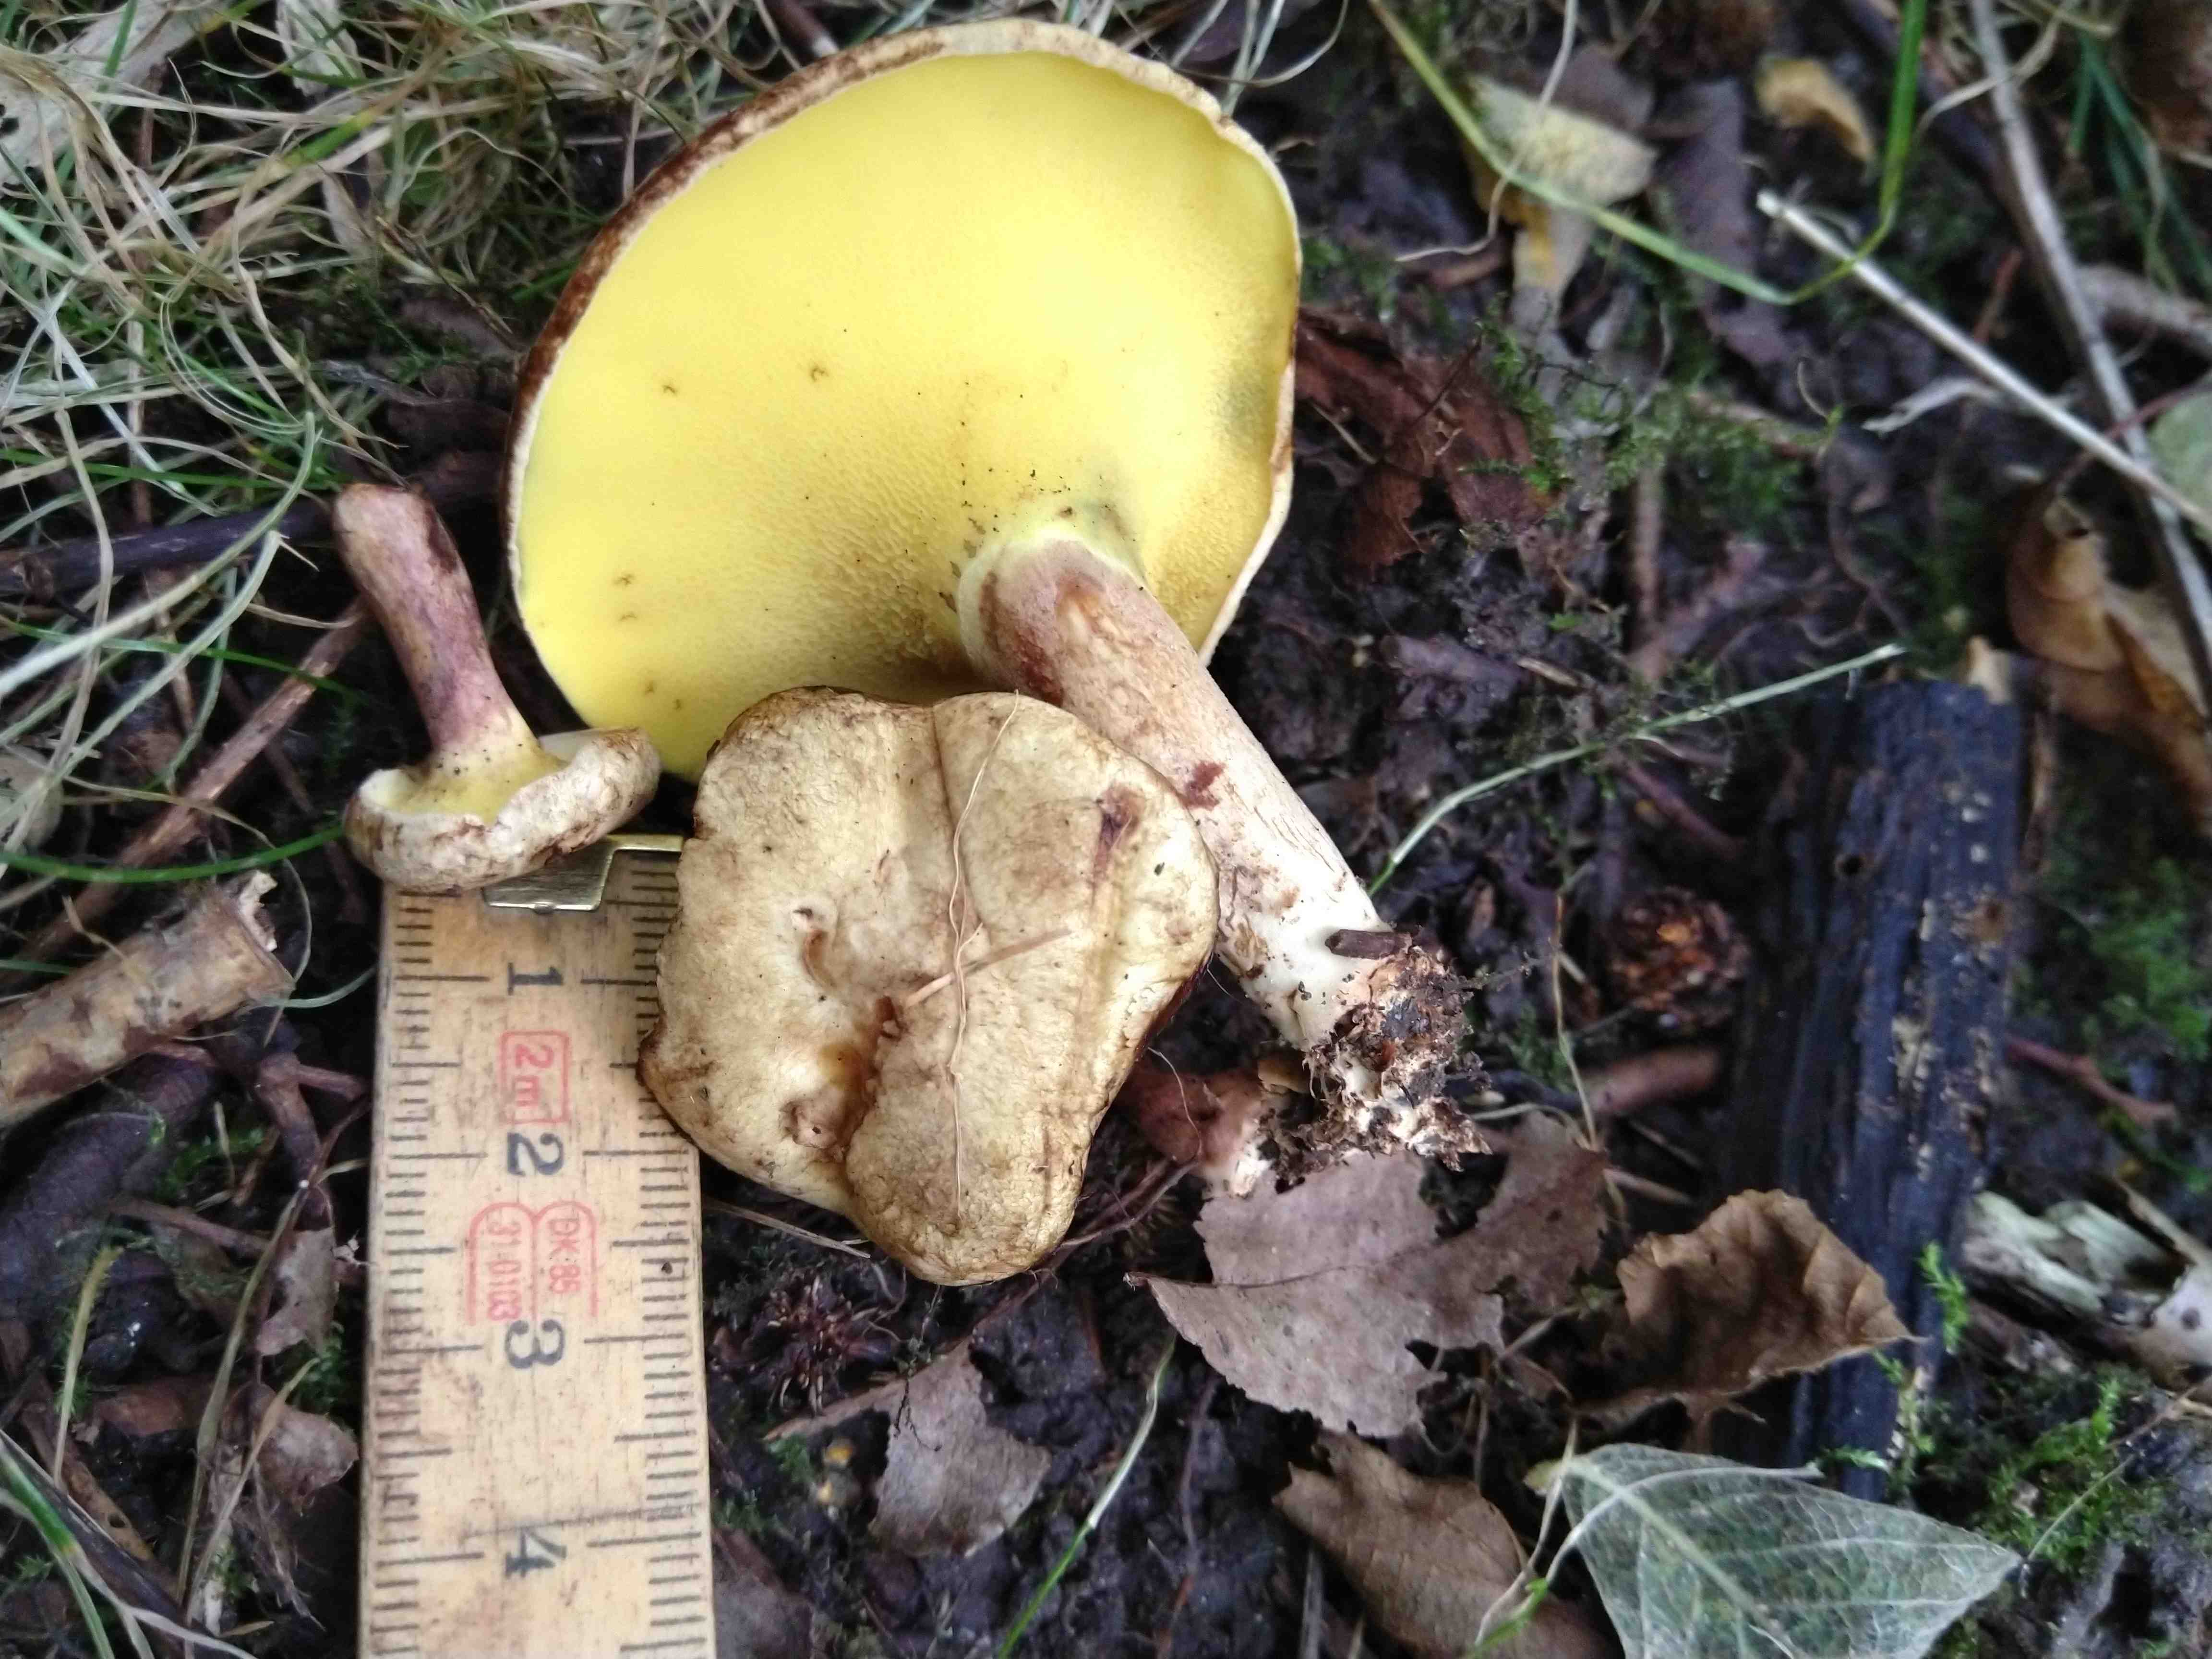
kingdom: Fungi
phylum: Basidiomycota
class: Agaricomycetes
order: Boletales
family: Paxillaceae
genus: Gyrodon
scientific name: Gyrodon lividus
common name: ellerørhat
